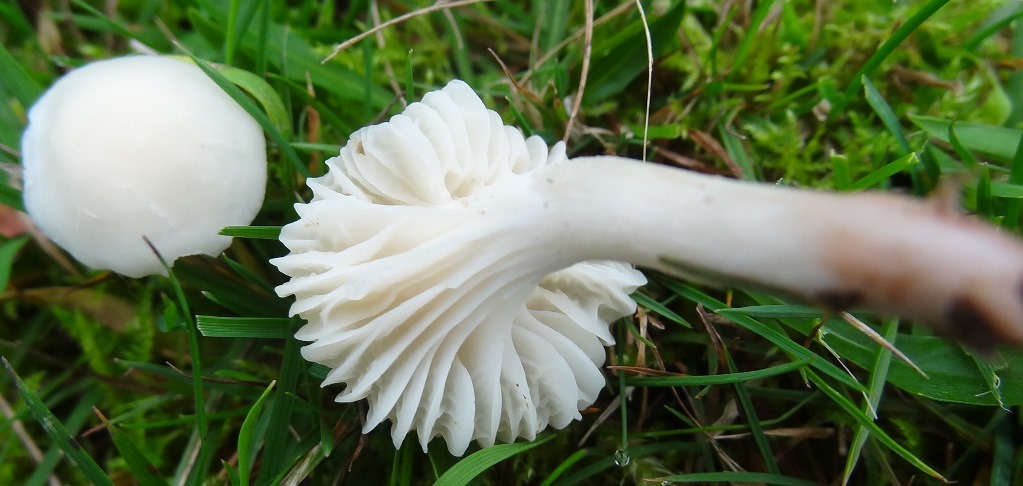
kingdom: Fungi
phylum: Basidiomycota
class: Agaricomycetes
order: Agaricales
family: Hygrophoraceae
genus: Cuphophyllus
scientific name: Cuphophyllus virgineus
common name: snehvid vokshat
